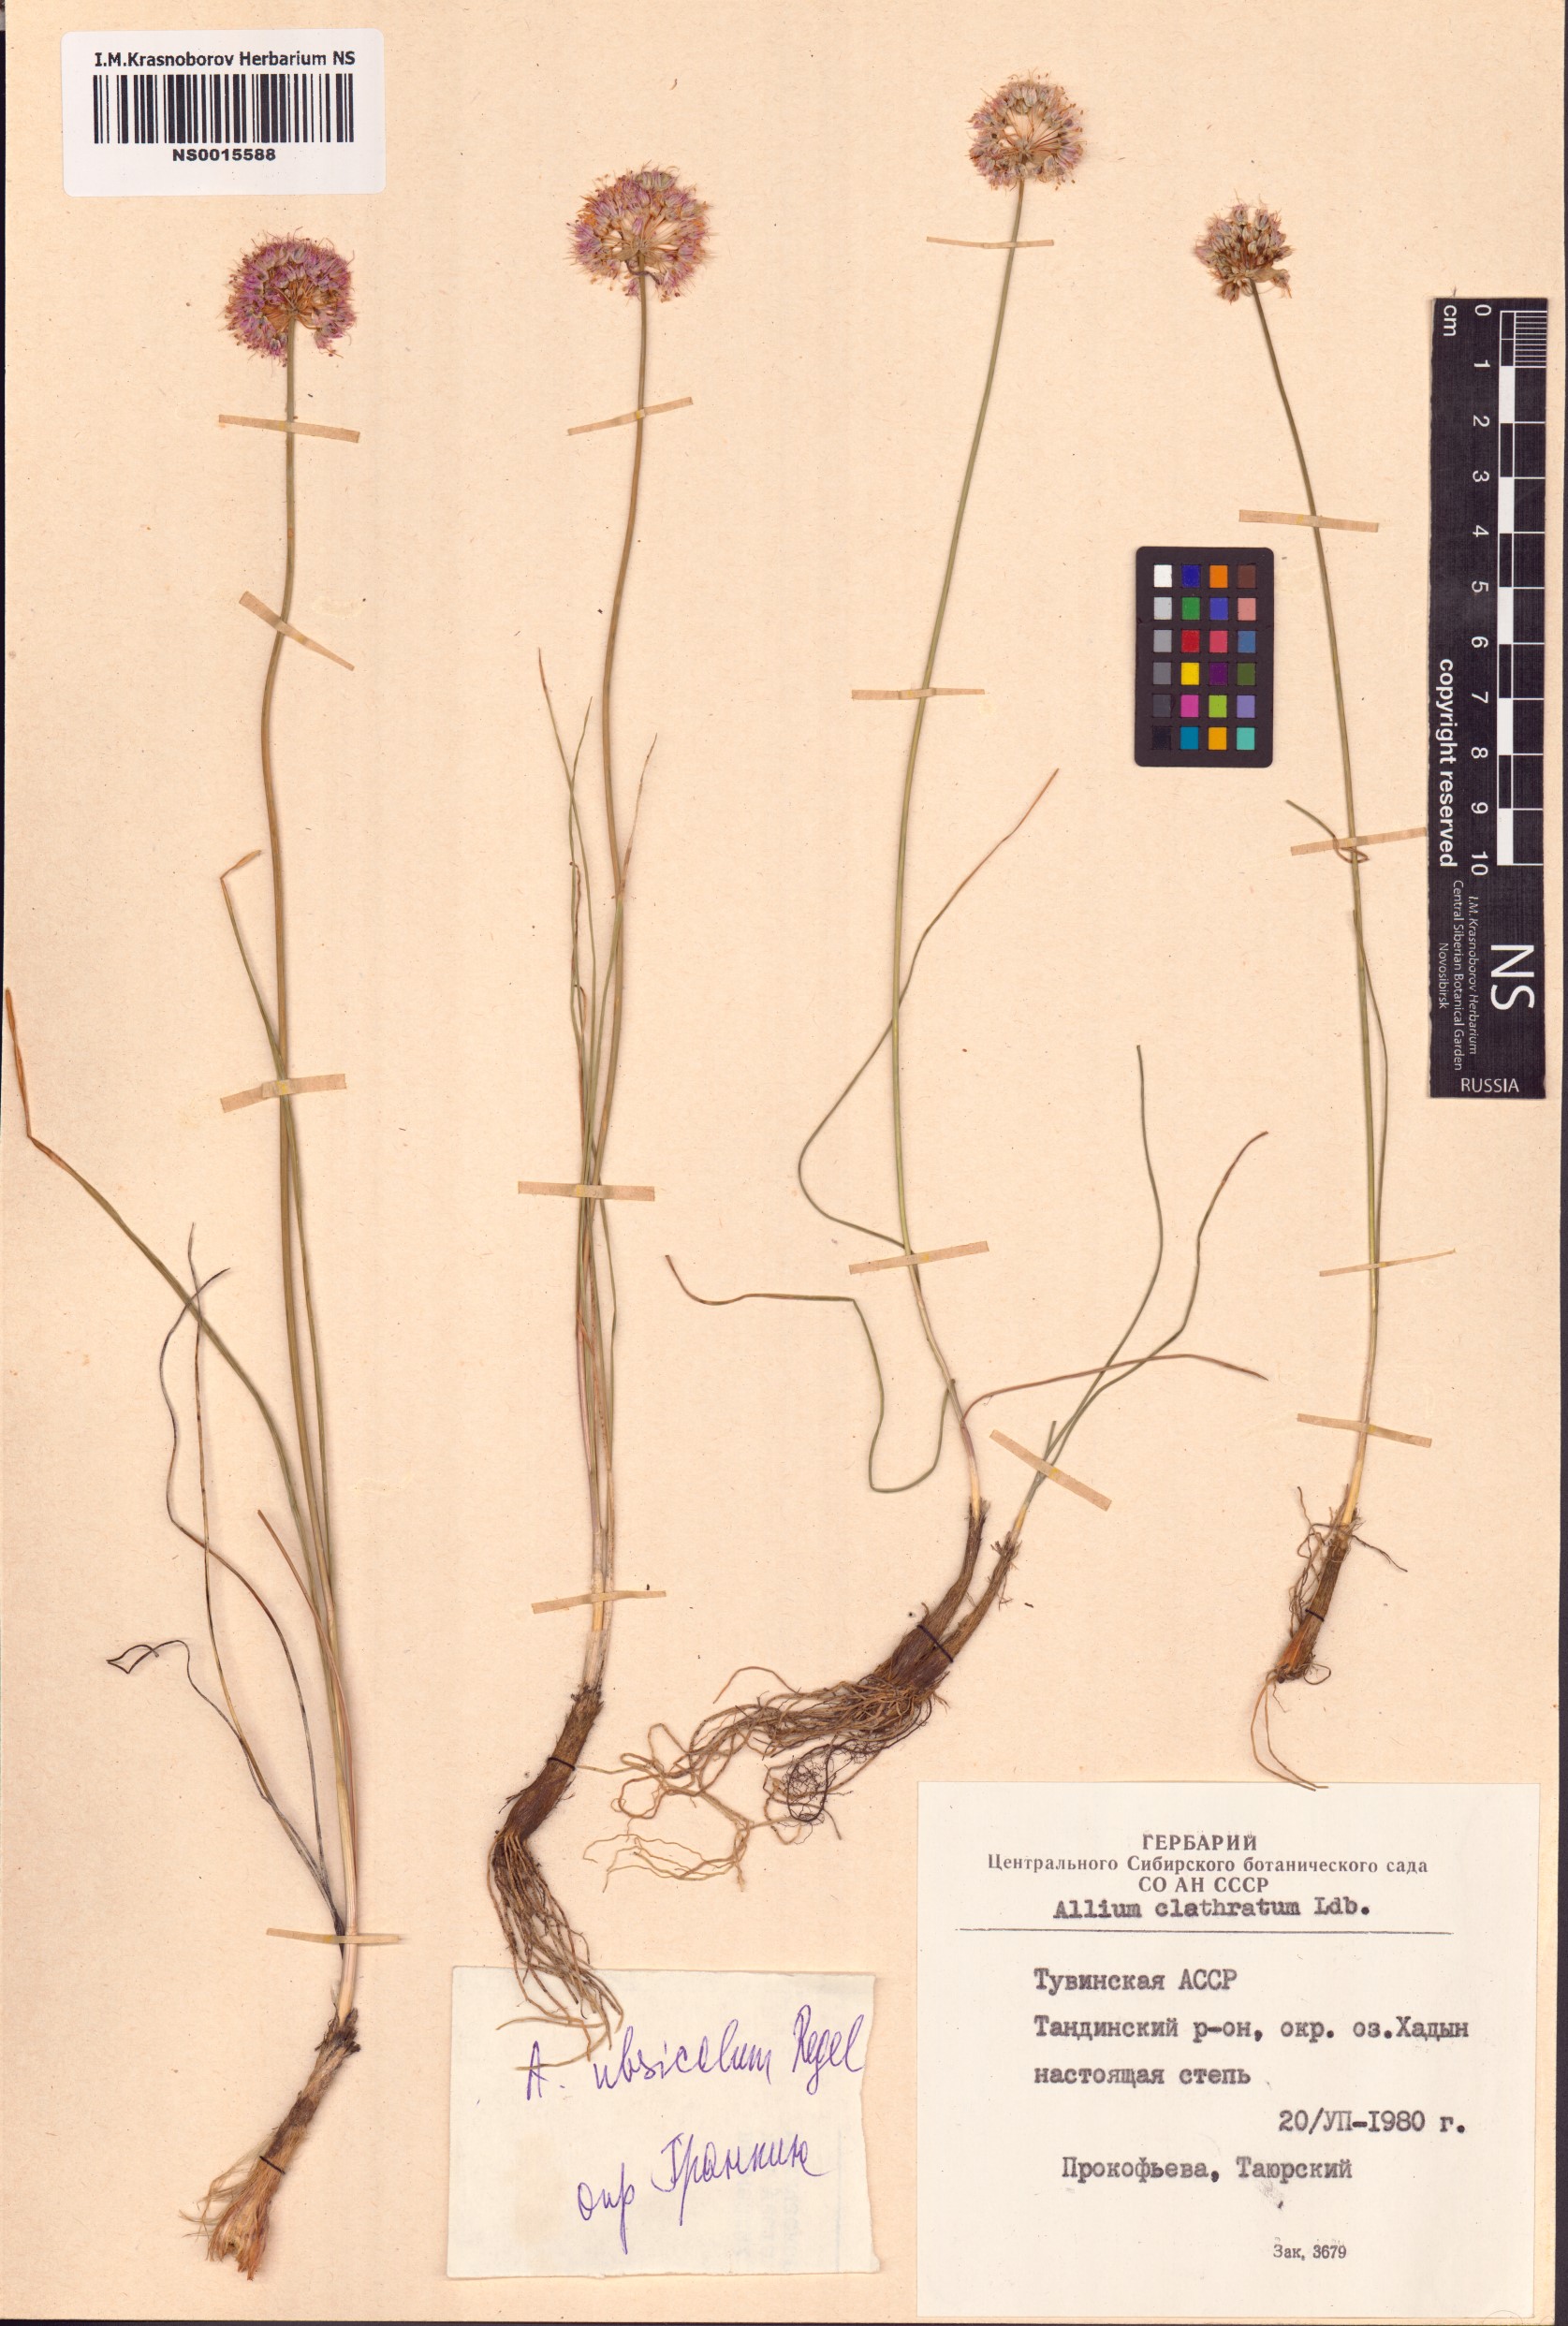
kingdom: Plantae
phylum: Tracheophyta
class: Liliopsida
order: Asparagales
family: Amaryllidaceae
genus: Allium
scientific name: Allium ubsicola
